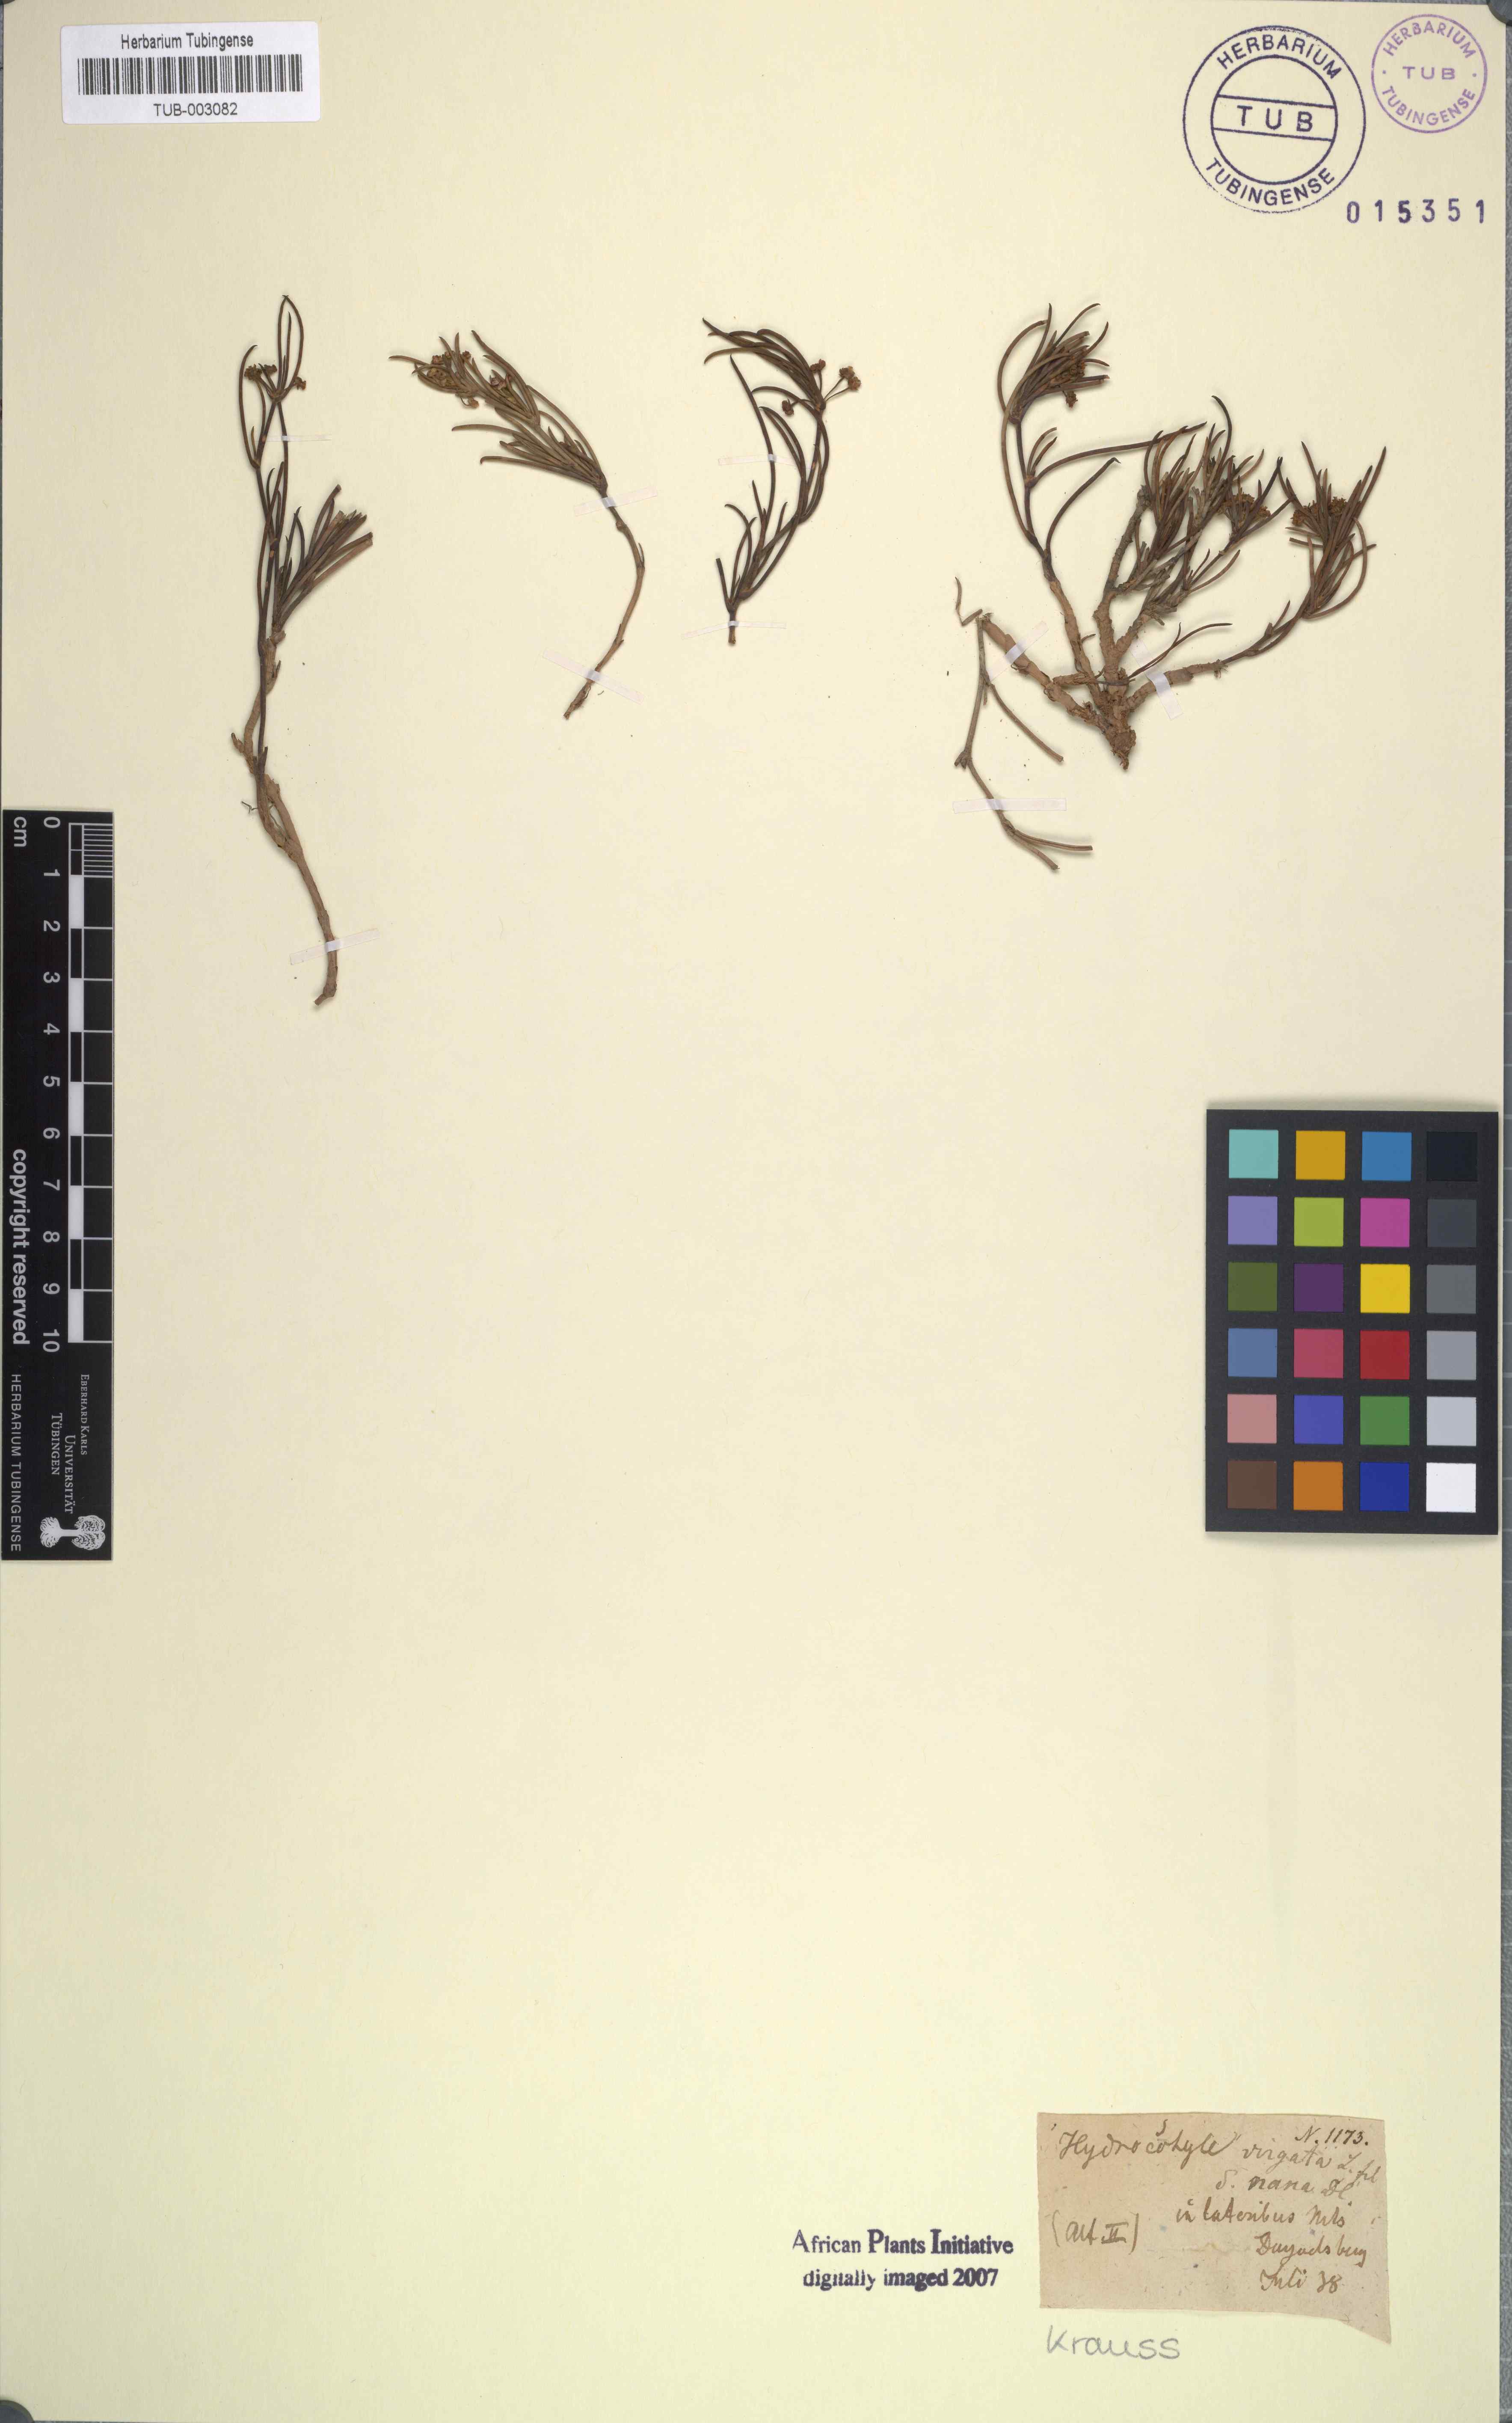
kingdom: Plantae
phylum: Tracheophyta
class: Magnoliopsida
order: Apiales
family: Apiaceae
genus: Centella
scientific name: Centella virgata
